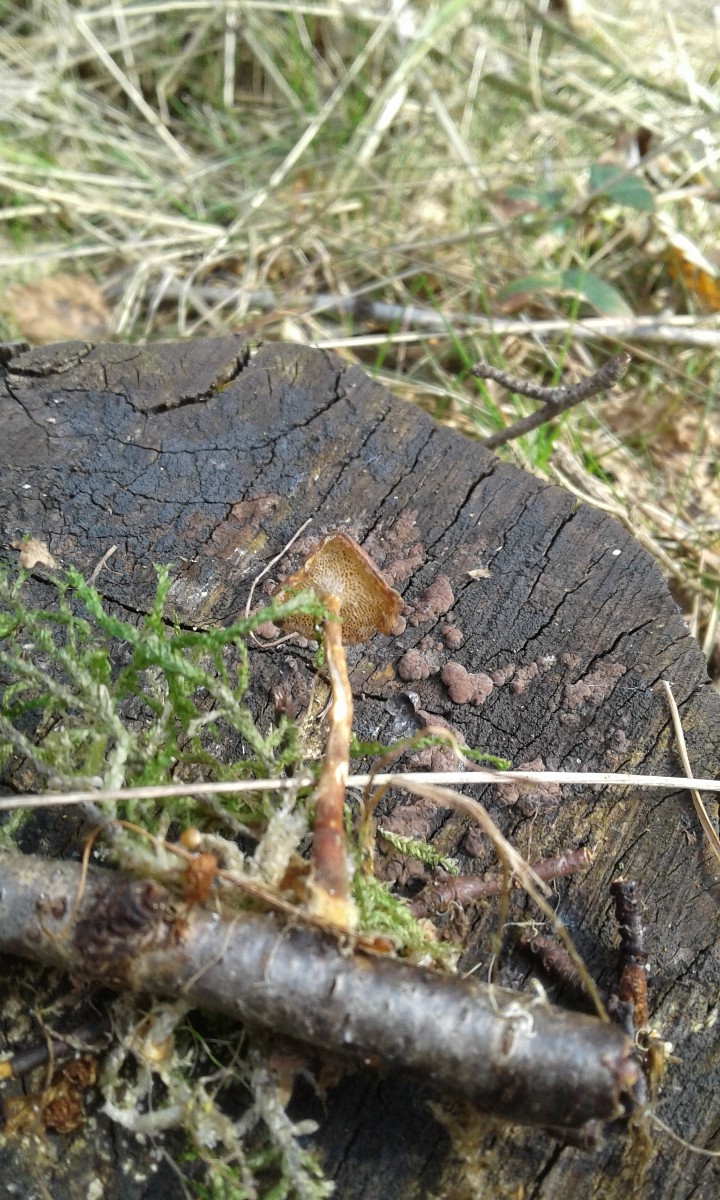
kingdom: Fungi
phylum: Basidiomycota
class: Agaricomycetes
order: Polyporales
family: Polyporaceae
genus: Lentinus
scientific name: Lentinus brumalis
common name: vinter-stilkporesvamp
